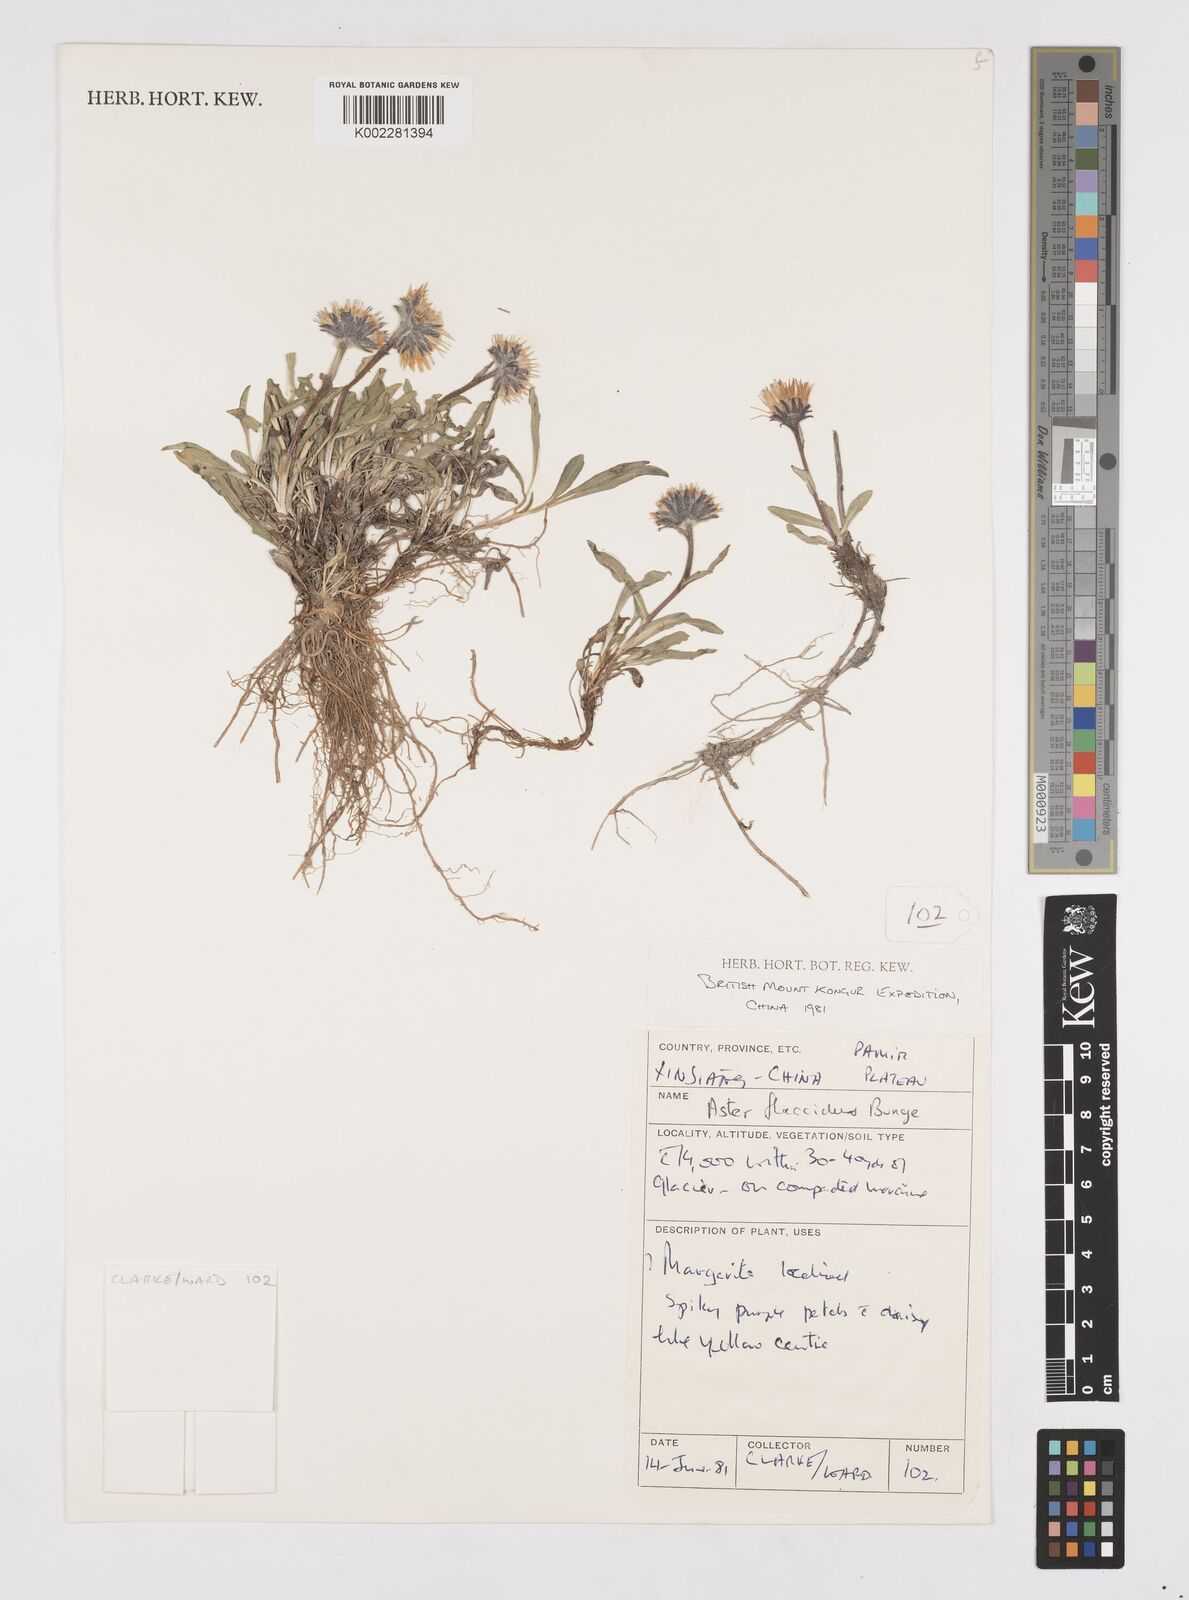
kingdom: Plantae
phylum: Tracheophyta
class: Magnoliopsida
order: Asterales
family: Asteraceae
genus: Tibetiodes
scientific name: Tibetiodes flaccida
